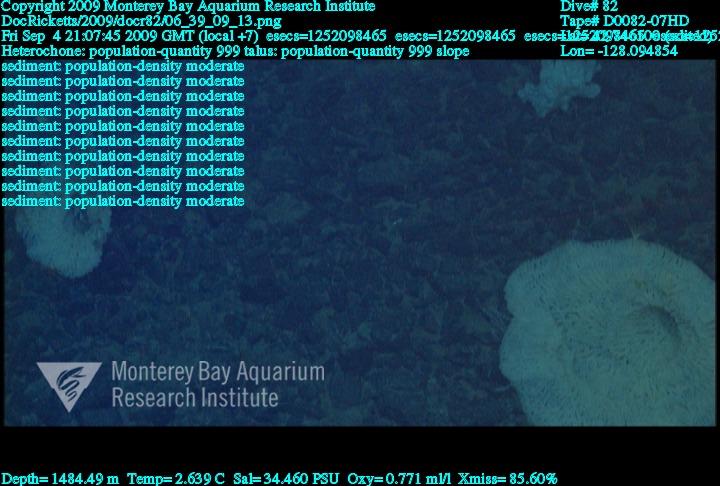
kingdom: Animalia
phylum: Porifera
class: Hexactinellida
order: Sceptrulophora
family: Aphrocallistidae
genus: Heterochone
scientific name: Heterochone
